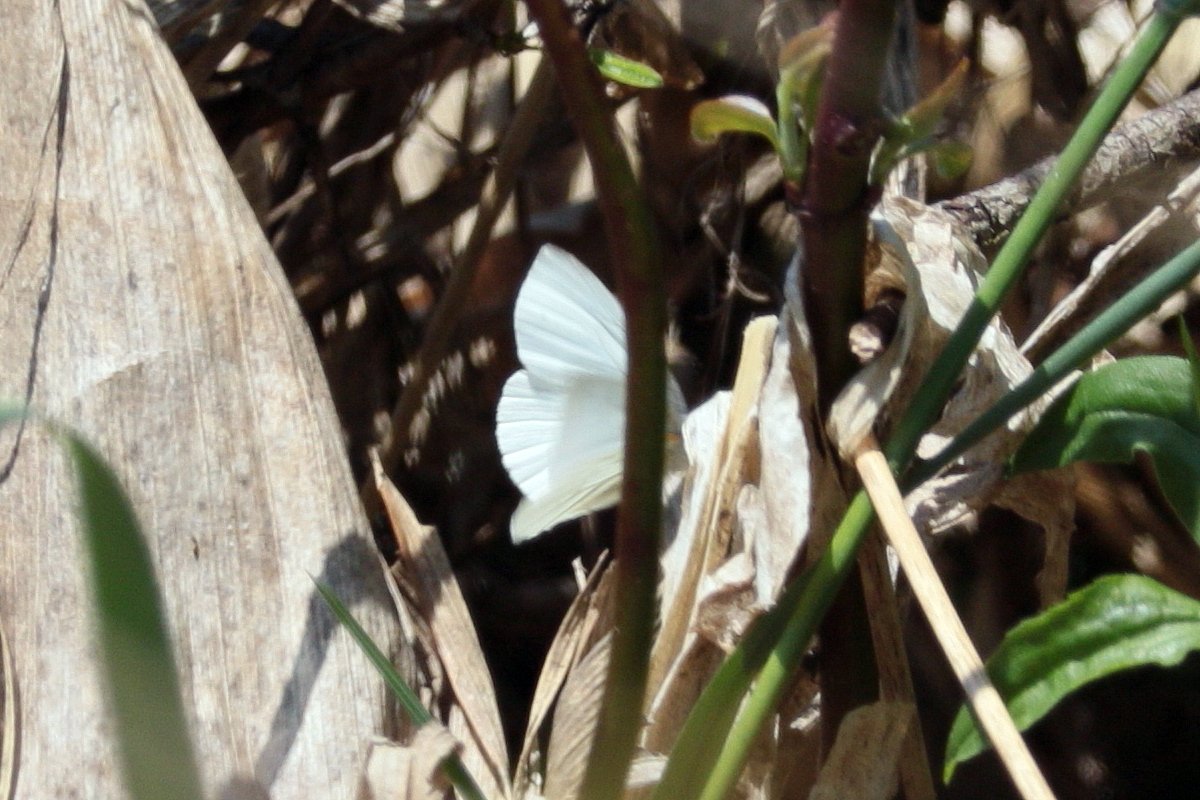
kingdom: Animalia
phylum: Arthropoda
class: Insecta
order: Lepidoptera
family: Pieridae
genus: Pieris
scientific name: Pieris oleracea
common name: Mustard White
